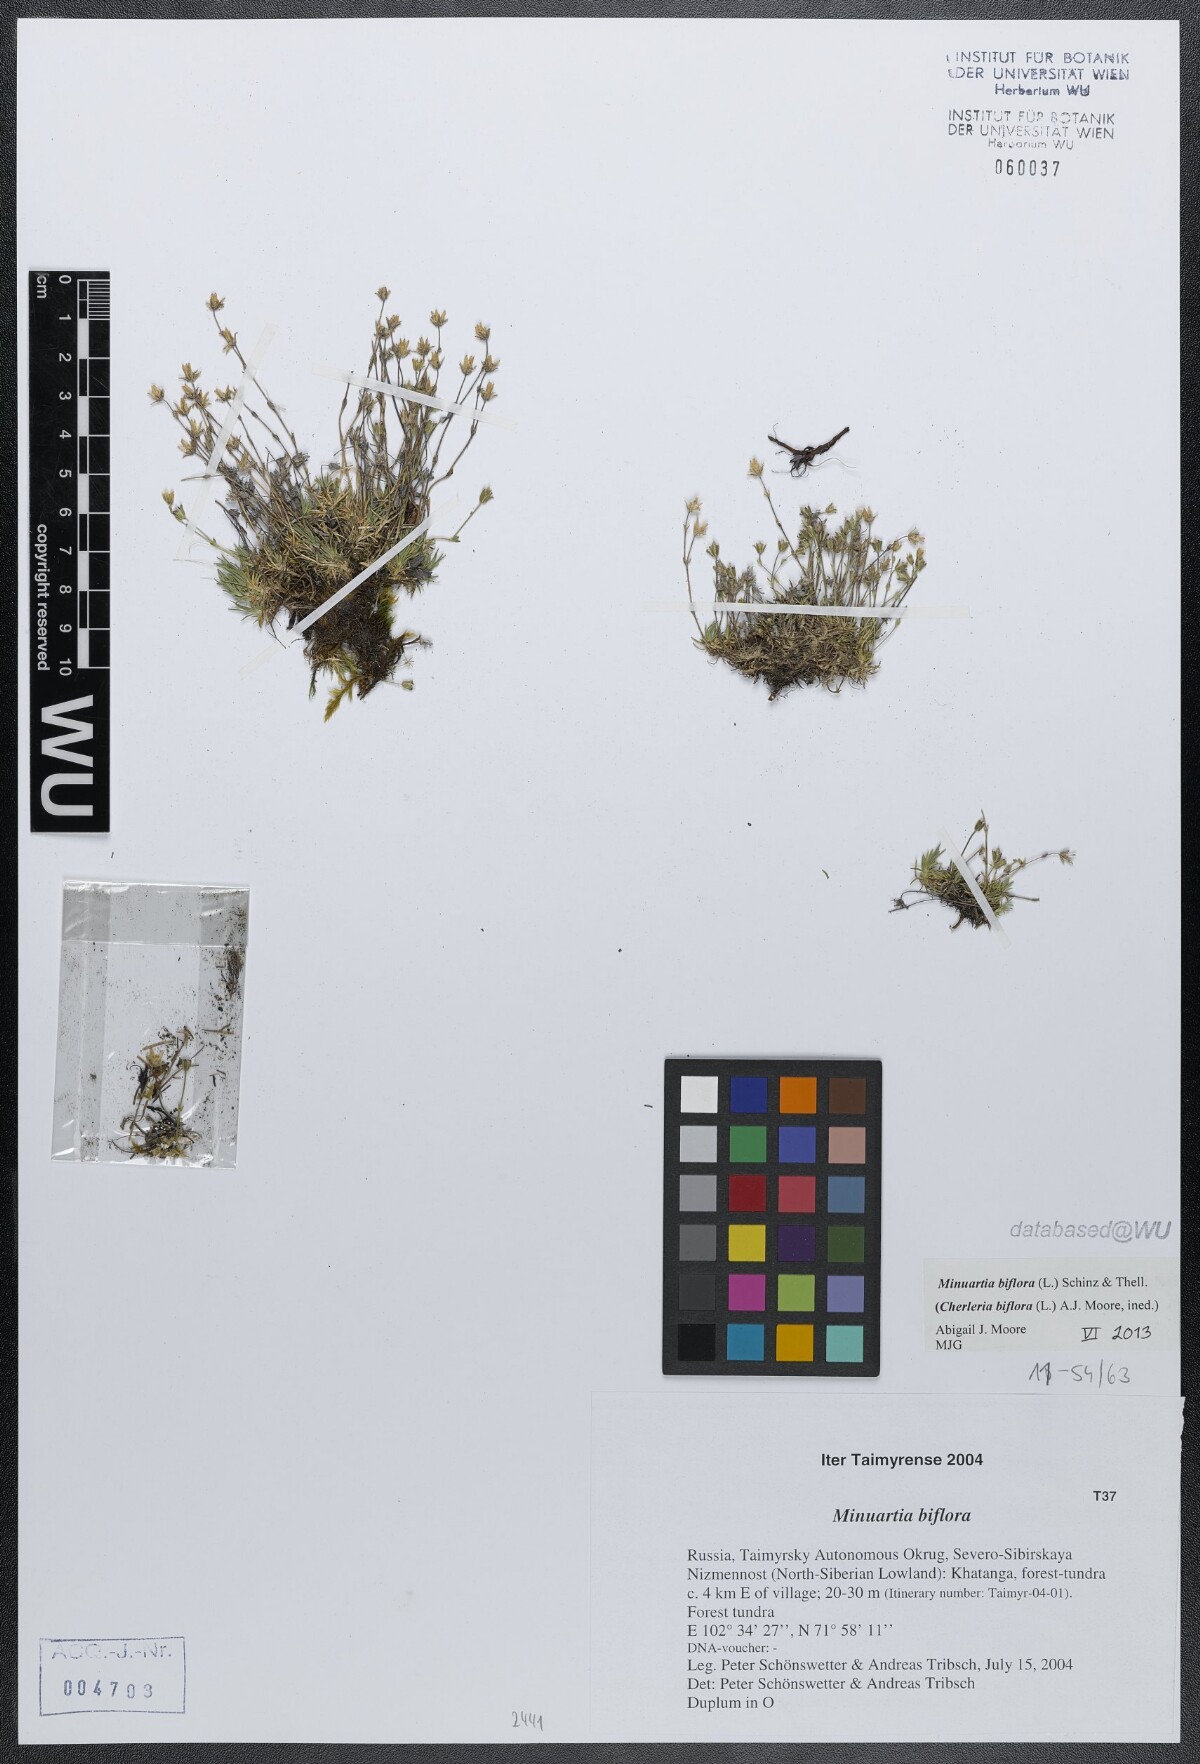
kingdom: Plantae
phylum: Tracheophyta
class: Magnoliopsida
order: Caryophyllales
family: Caryophyllaceae
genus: Cherleria
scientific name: Cherleria biflora
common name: Mountain sandwort
